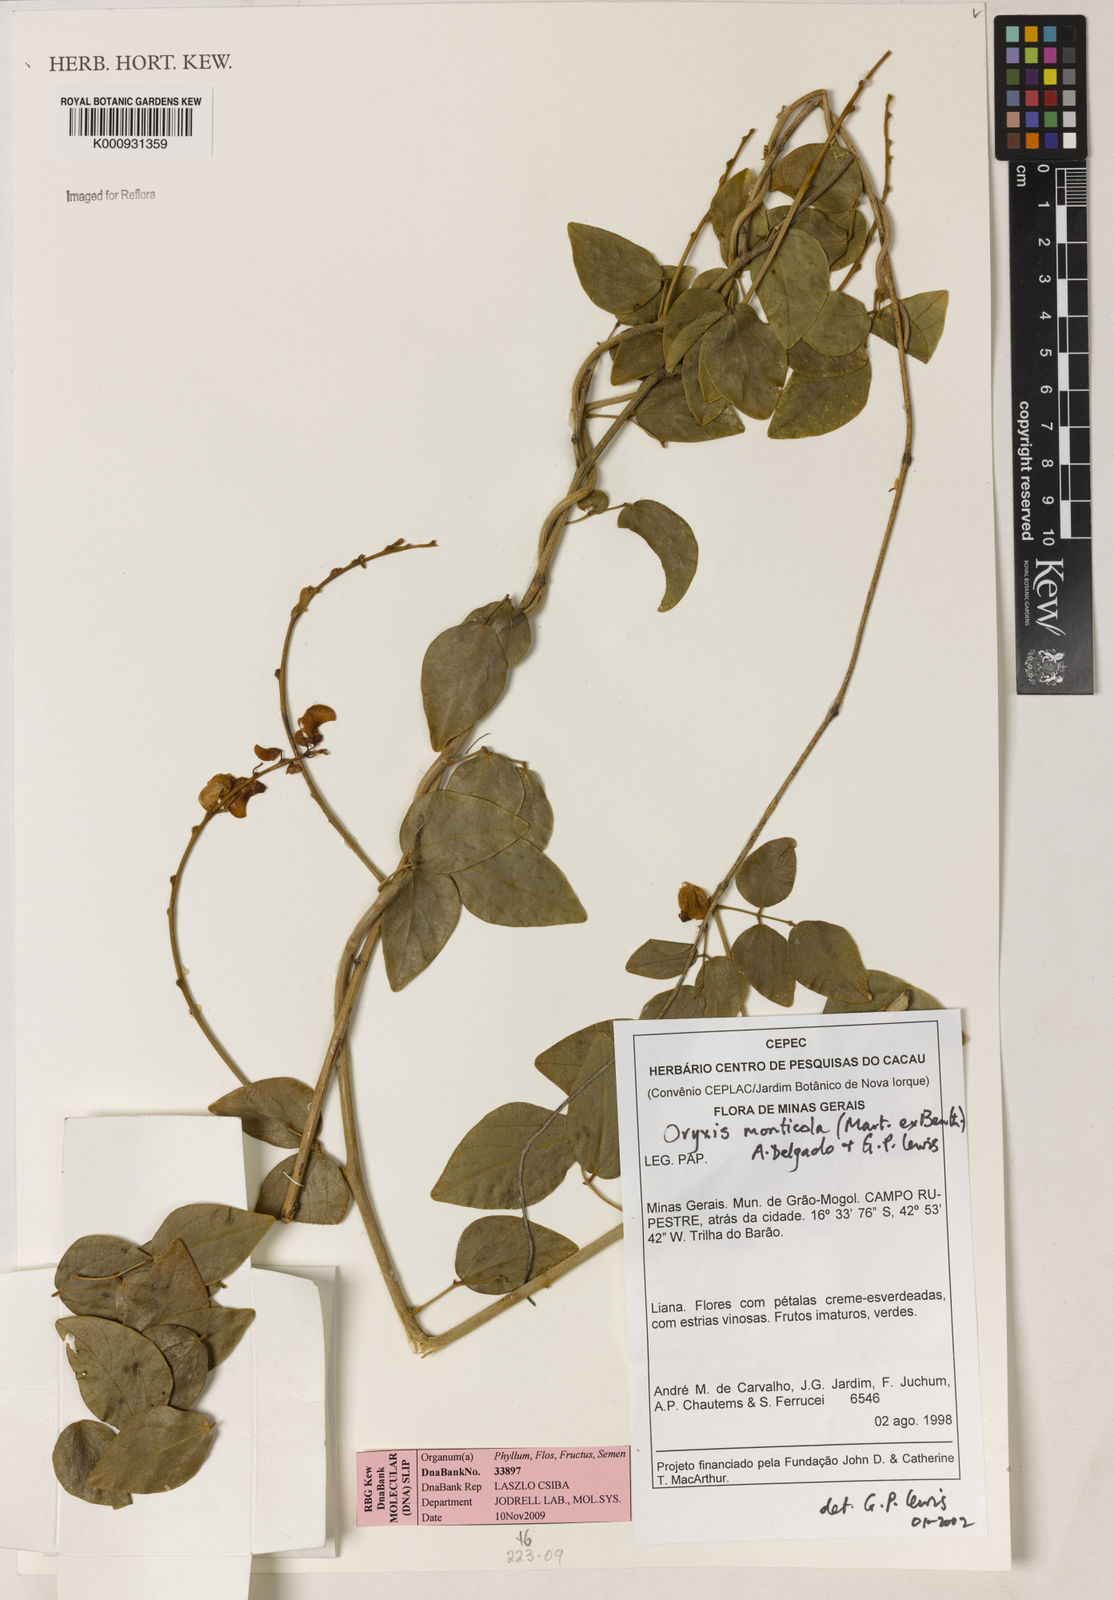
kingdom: Plantae
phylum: Tracheophyta
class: Magnoliopsida
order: Fabales
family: Fabaceae
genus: Dolichopsis
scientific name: Dolichopsis monticola
